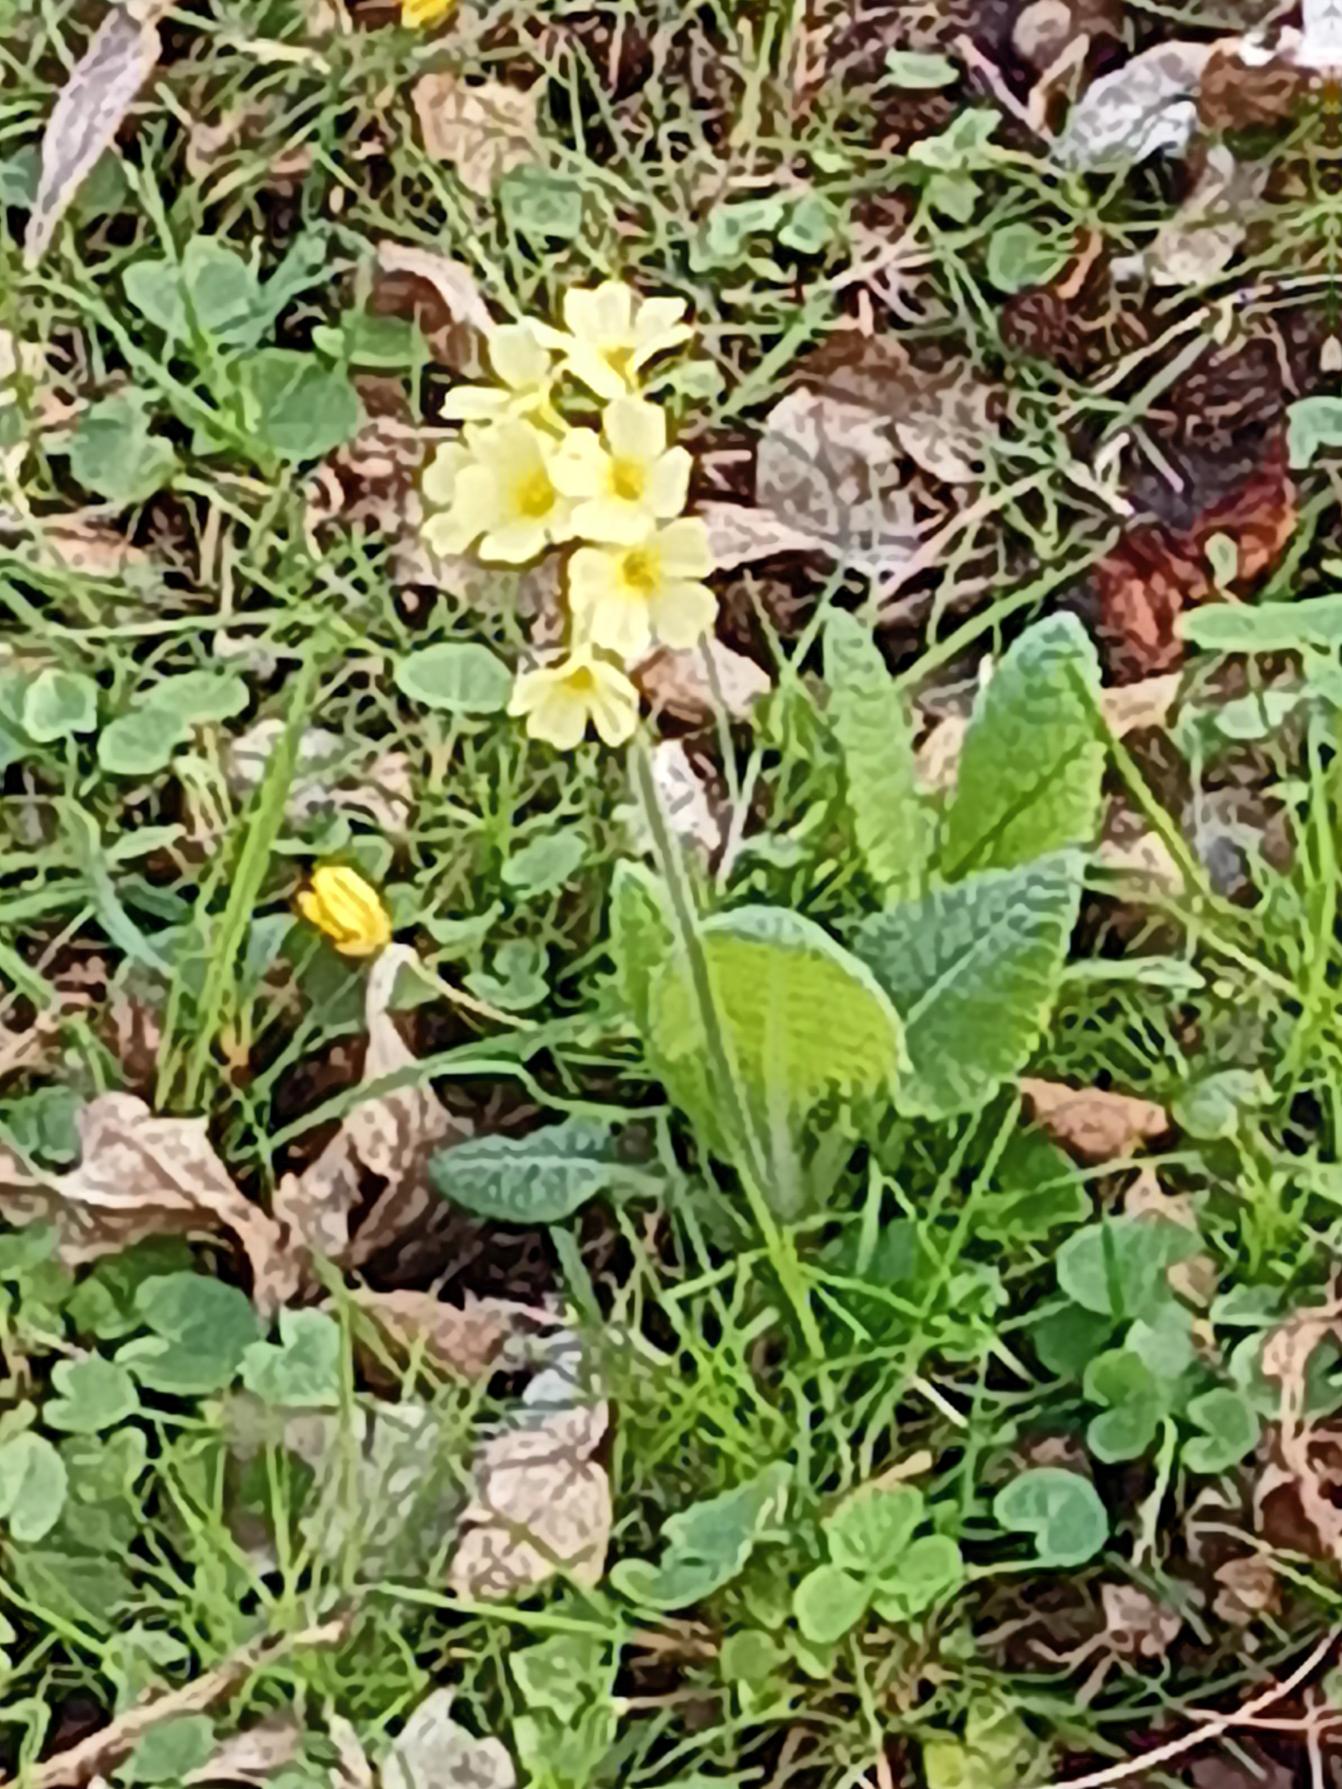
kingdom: Plantae
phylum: Tracheophyta
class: Magnoliopsida
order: Ericales
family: Primulaceae
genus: Primula
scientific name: Primula elatior
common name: Fladkravet kodriver
